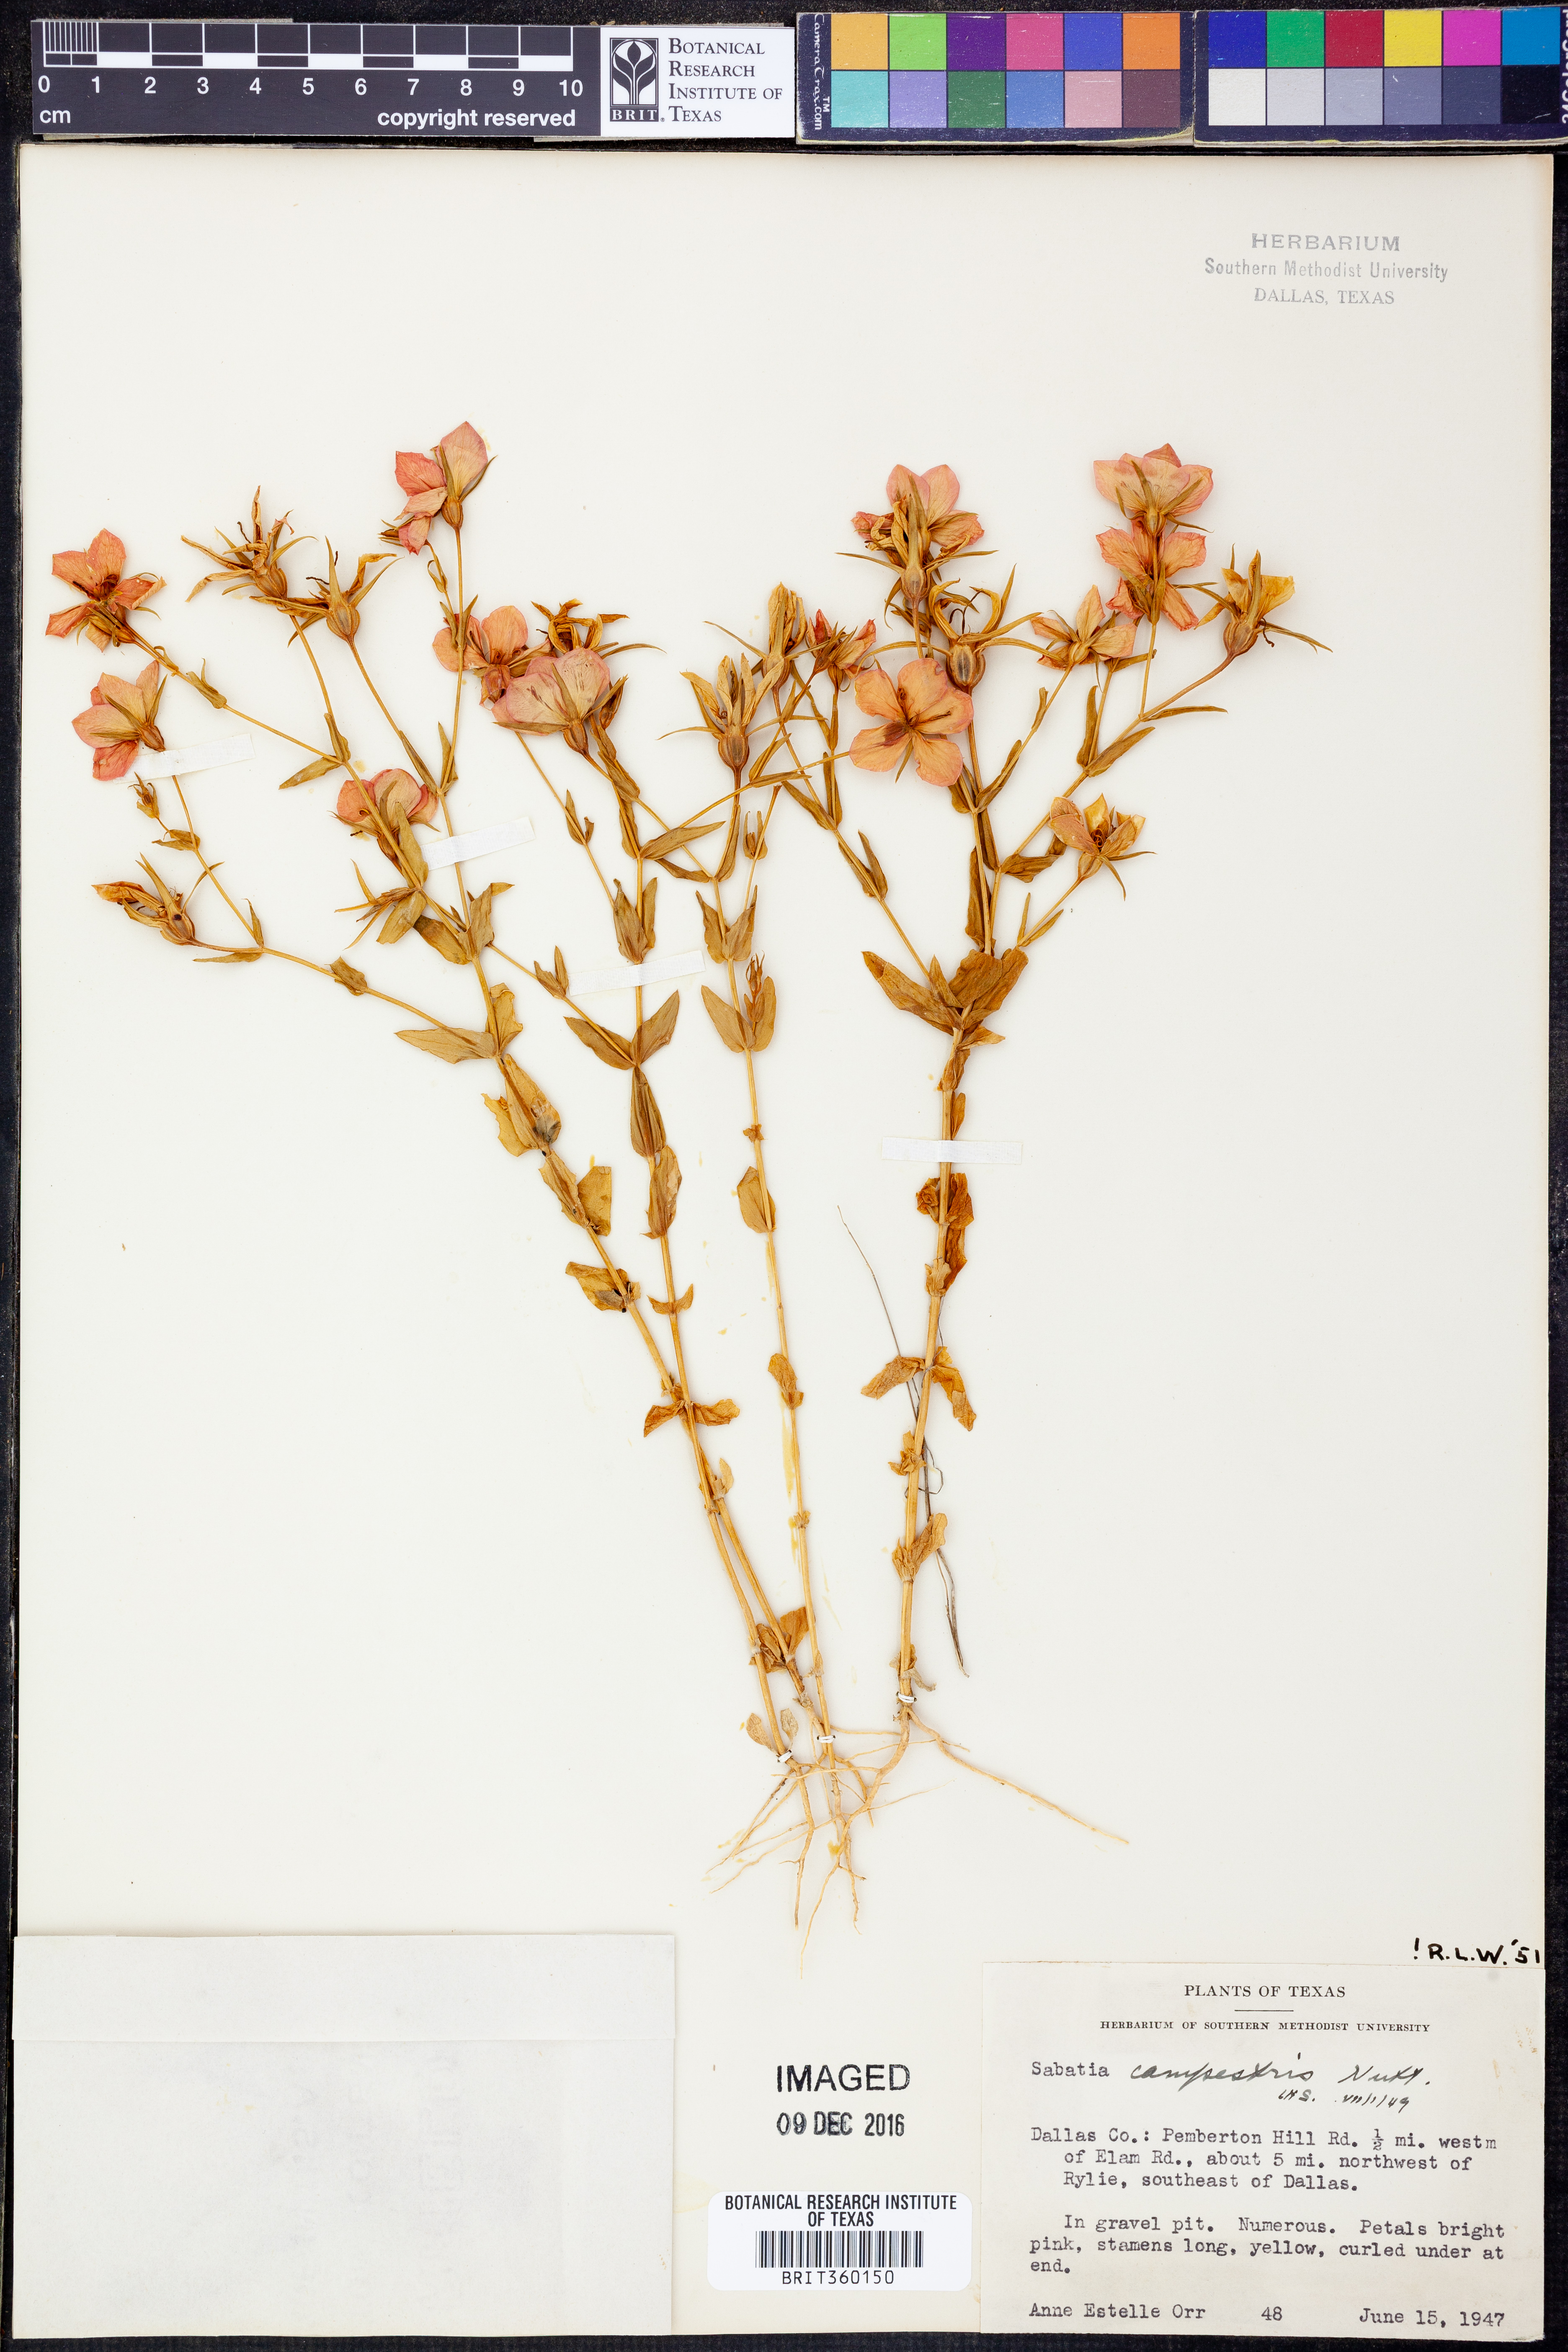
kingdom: Plantae
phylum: Tracheophyta
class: Magnoliopsida
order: Gentianales
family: Gentianaceae
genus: Sabatia
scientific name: Sabatia campestris
